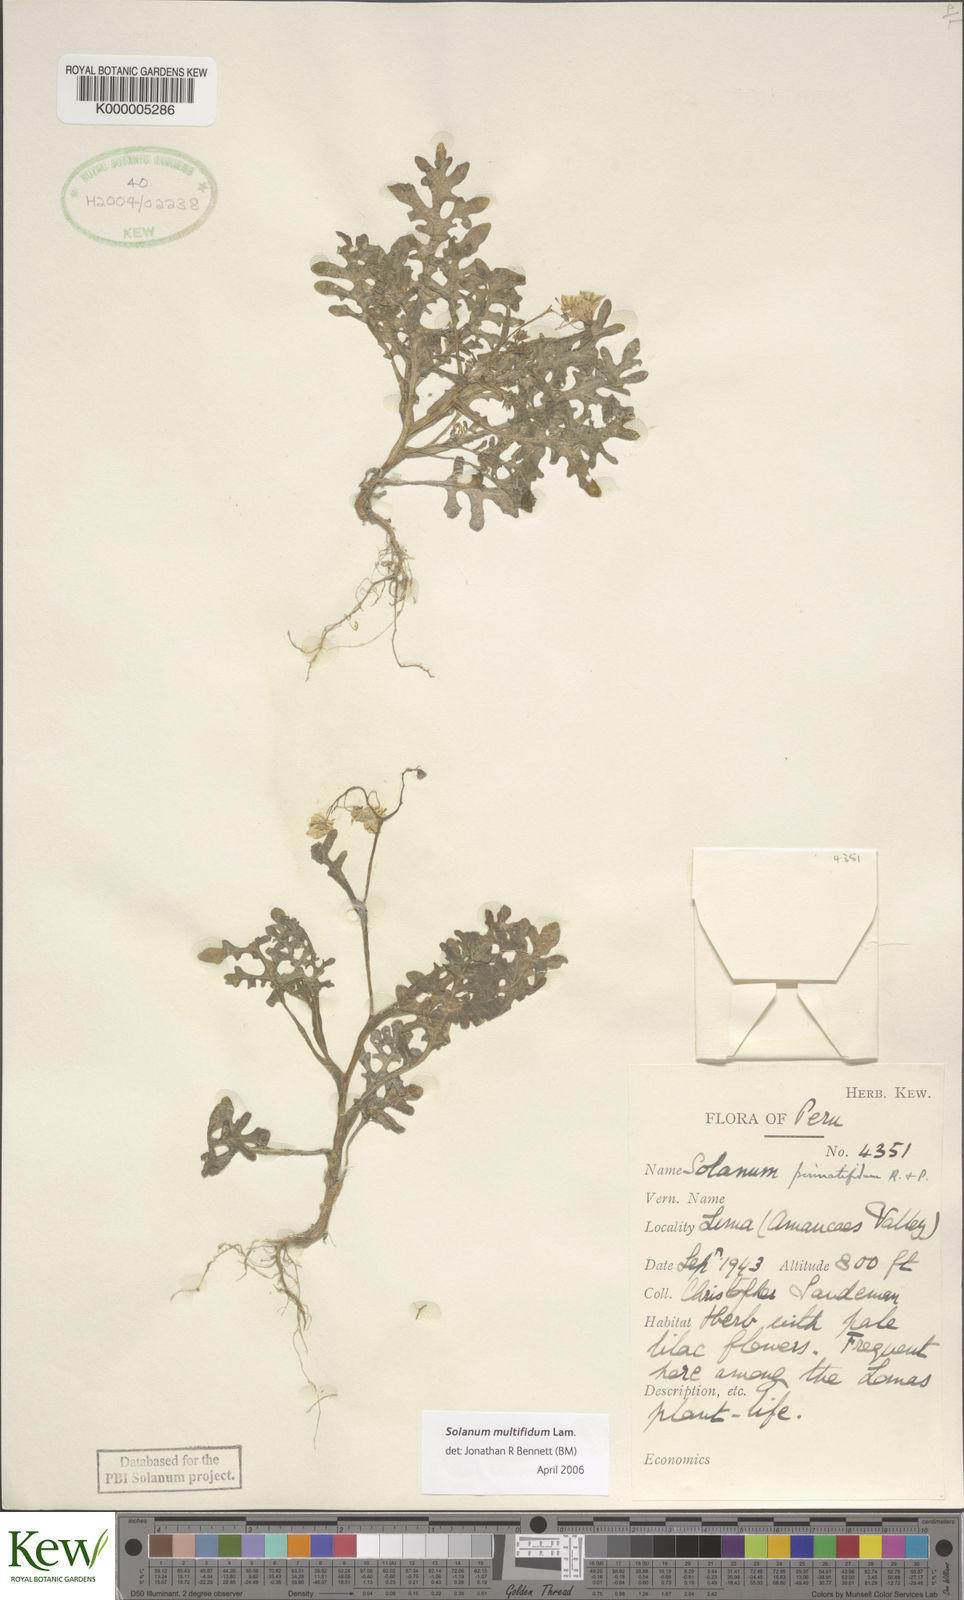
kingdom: Plantae
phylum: Tracheophyta
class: Magnoliopsida
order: Solanales
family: Solanaceae
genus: Solanum
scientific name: Solanum multifidum
